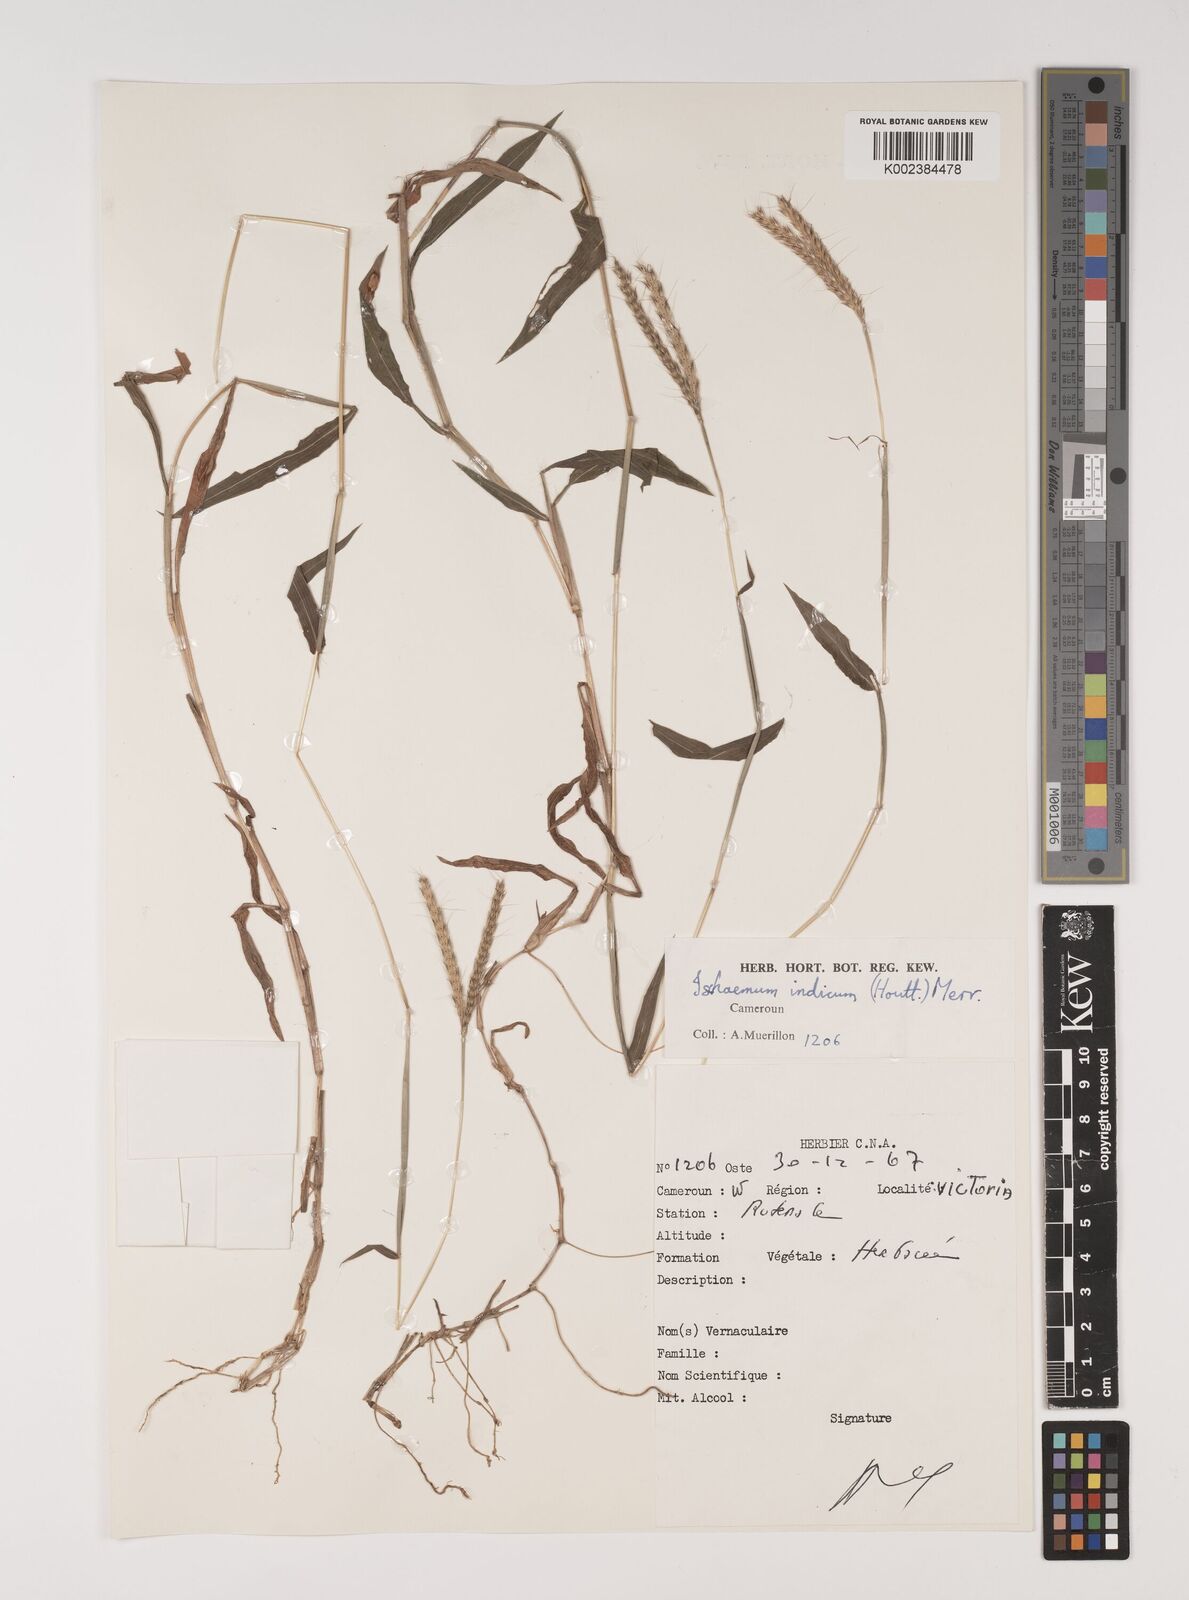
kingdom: Plantae
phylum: Tracheophyta
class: Liliopsida
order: Poales
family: Poaceae
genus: Ischaemum
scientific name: Ischaemum timorense
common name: Stalkleaf murainagrass
